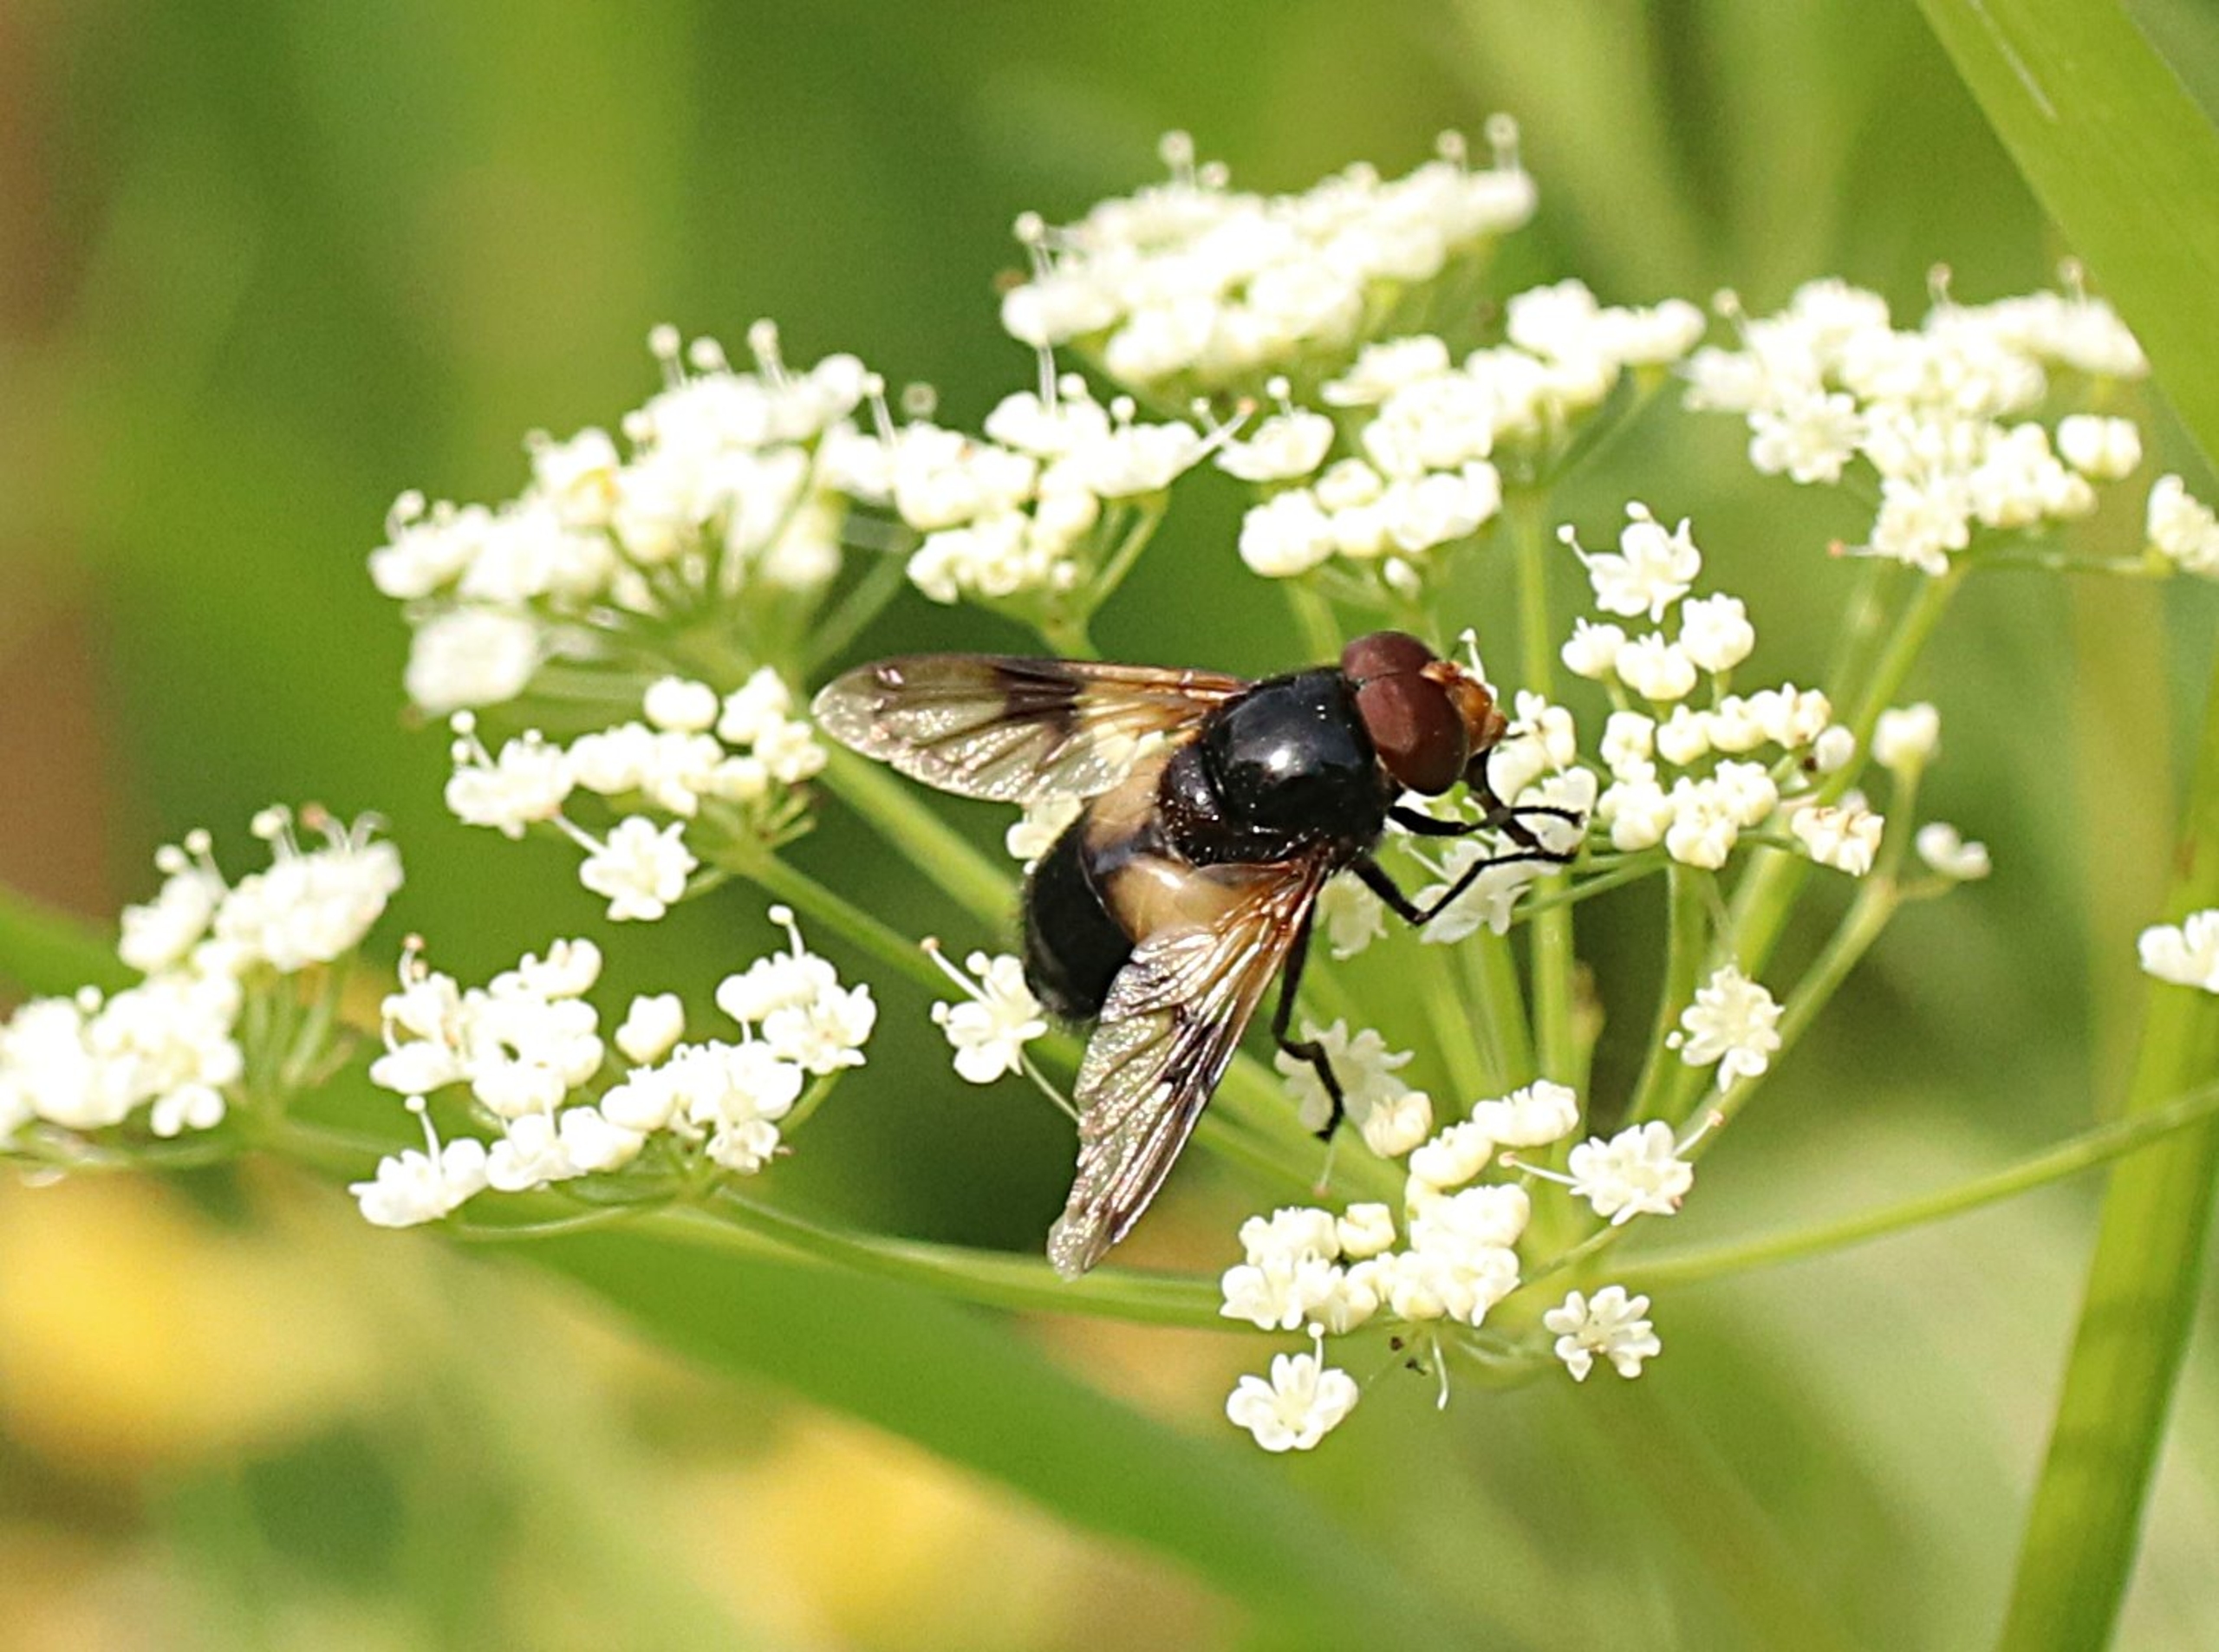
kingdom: Animalia
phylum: Arthropoda
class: Insecta
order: Diptera
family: Syrphidae
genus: Volucella
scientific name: Volucella pellucens
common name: Hvidbåndet humlesvirreflue
